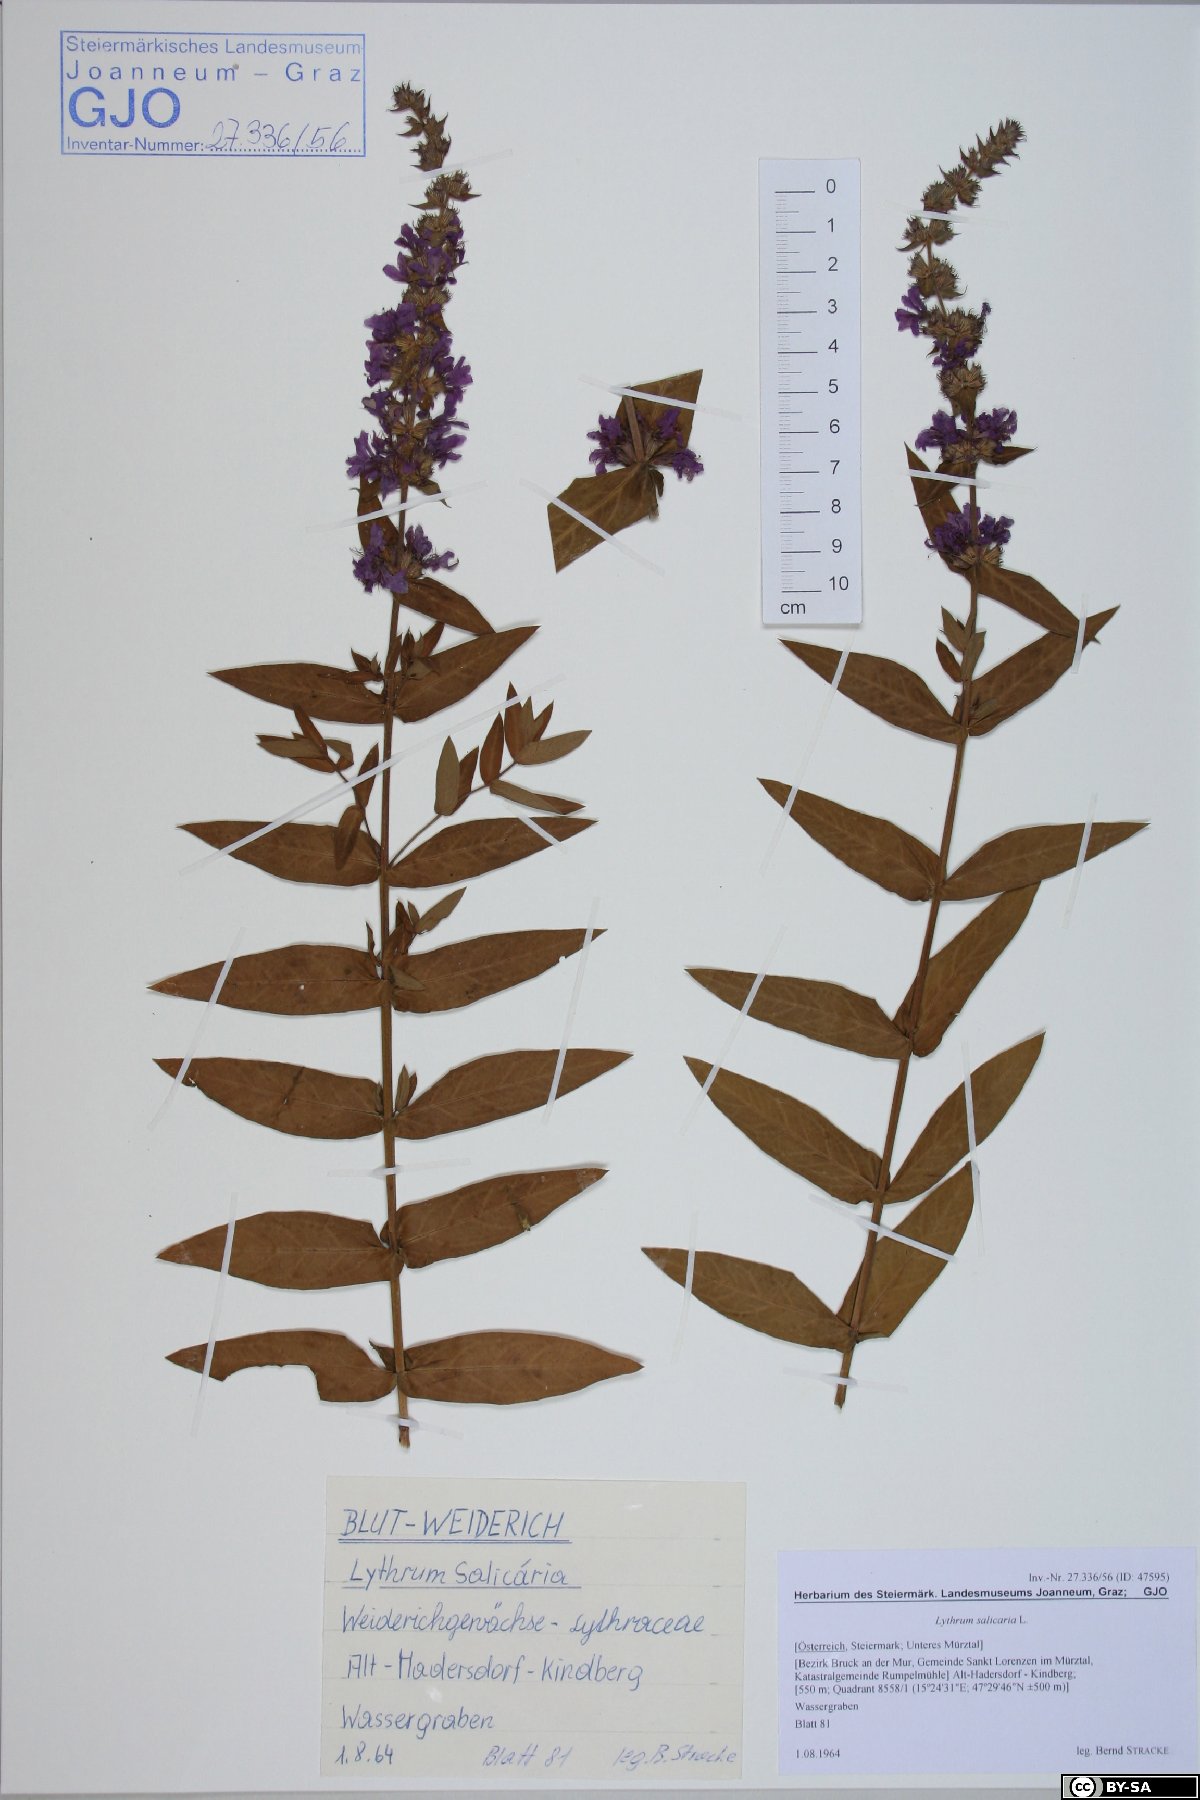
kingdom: Plantae
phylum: Tracheophyta
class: Magnoliopsida
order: Myrtales
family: Lythraceae
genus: Lythrum
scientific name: Lythrum salicaria
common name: Purple loosestrife
